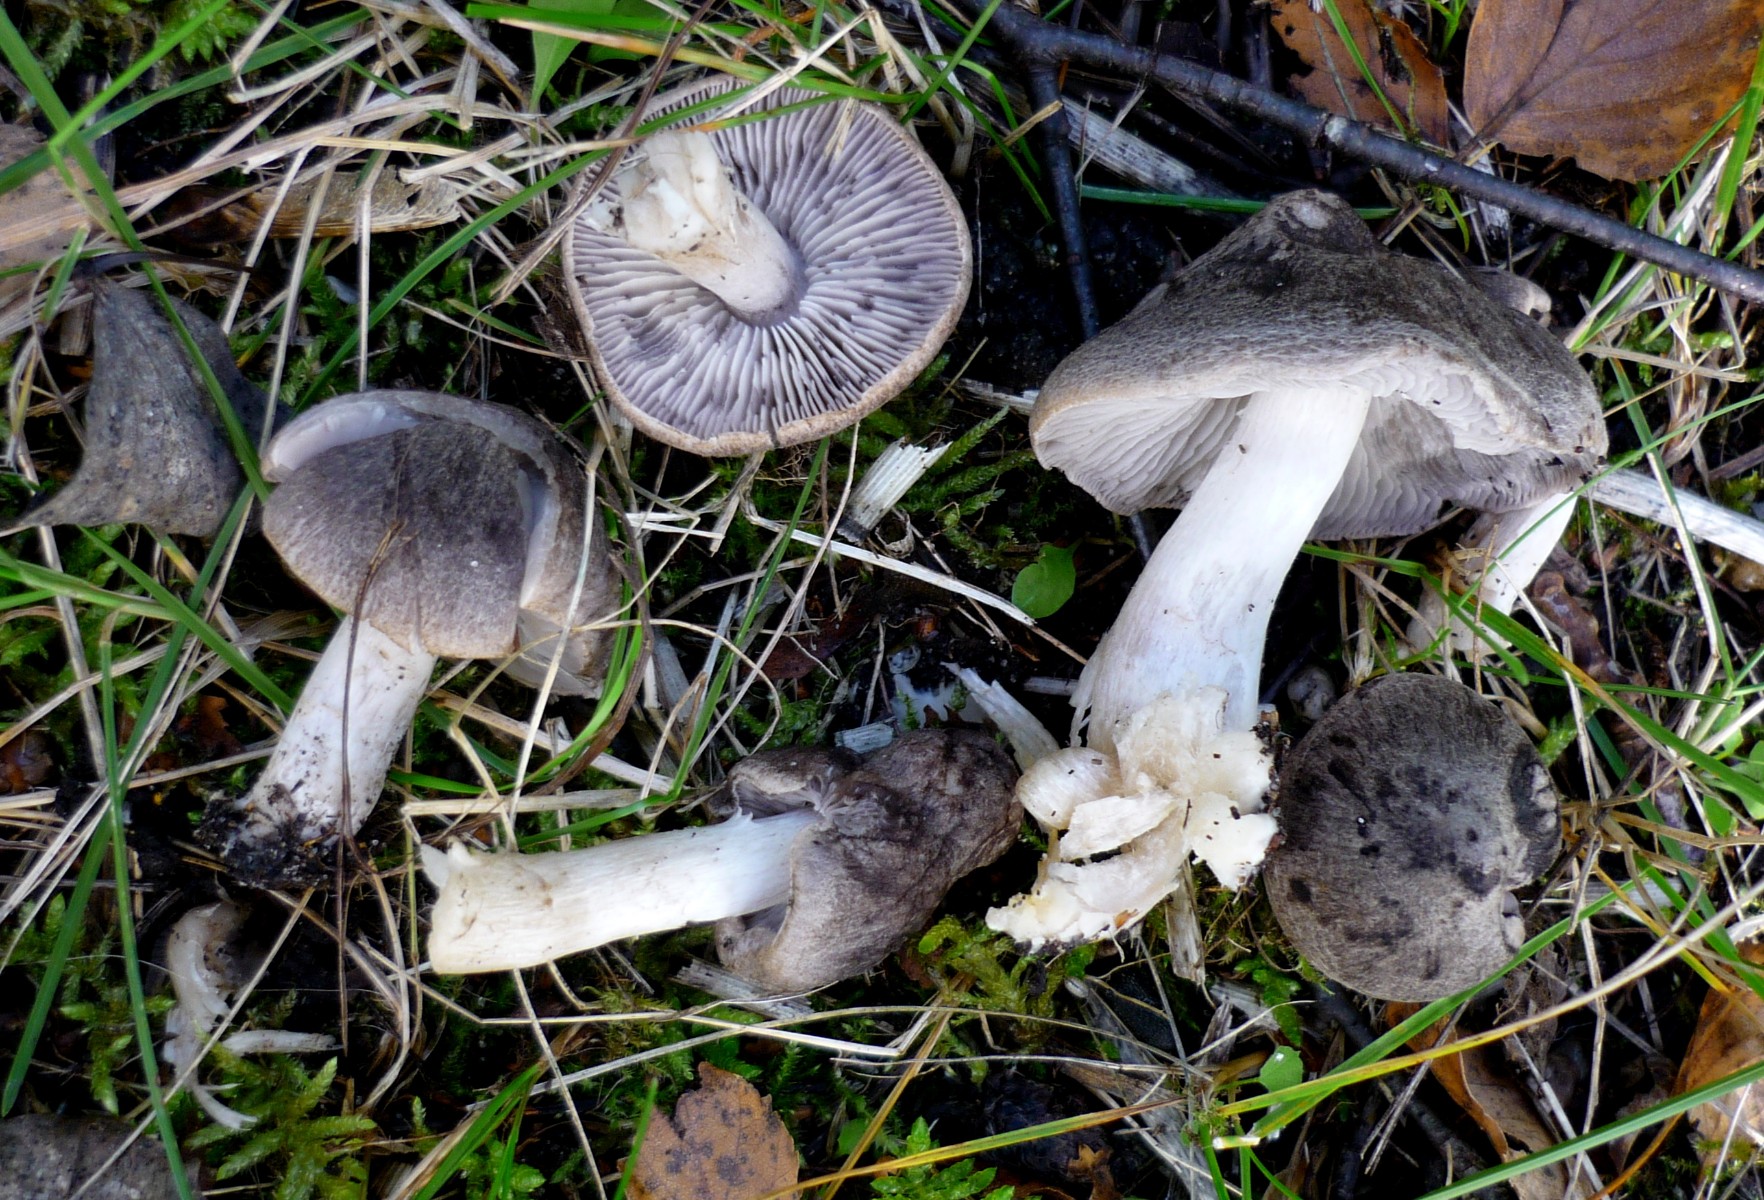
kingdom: Fungi
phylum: Basidiomycota
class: Agaricomycetes
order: Agaricales
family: Tricholomataceae
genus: Tricholoma
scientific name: Tricholoma terreum
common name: jordfarvet ridderhat
